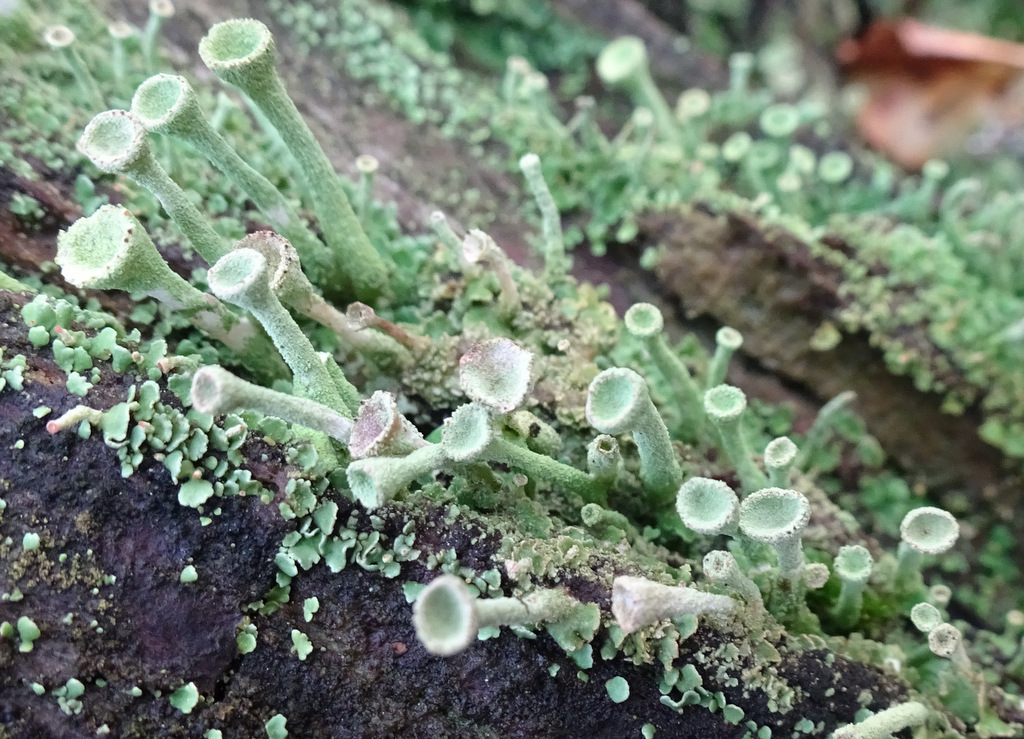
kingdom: Fungi
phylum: Ascomycota
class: Lecanoromycetes
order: Lecanorales
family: Cladoniaceae
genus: Cladonia
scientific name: Cladonia
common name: brungrøn bægerlav
